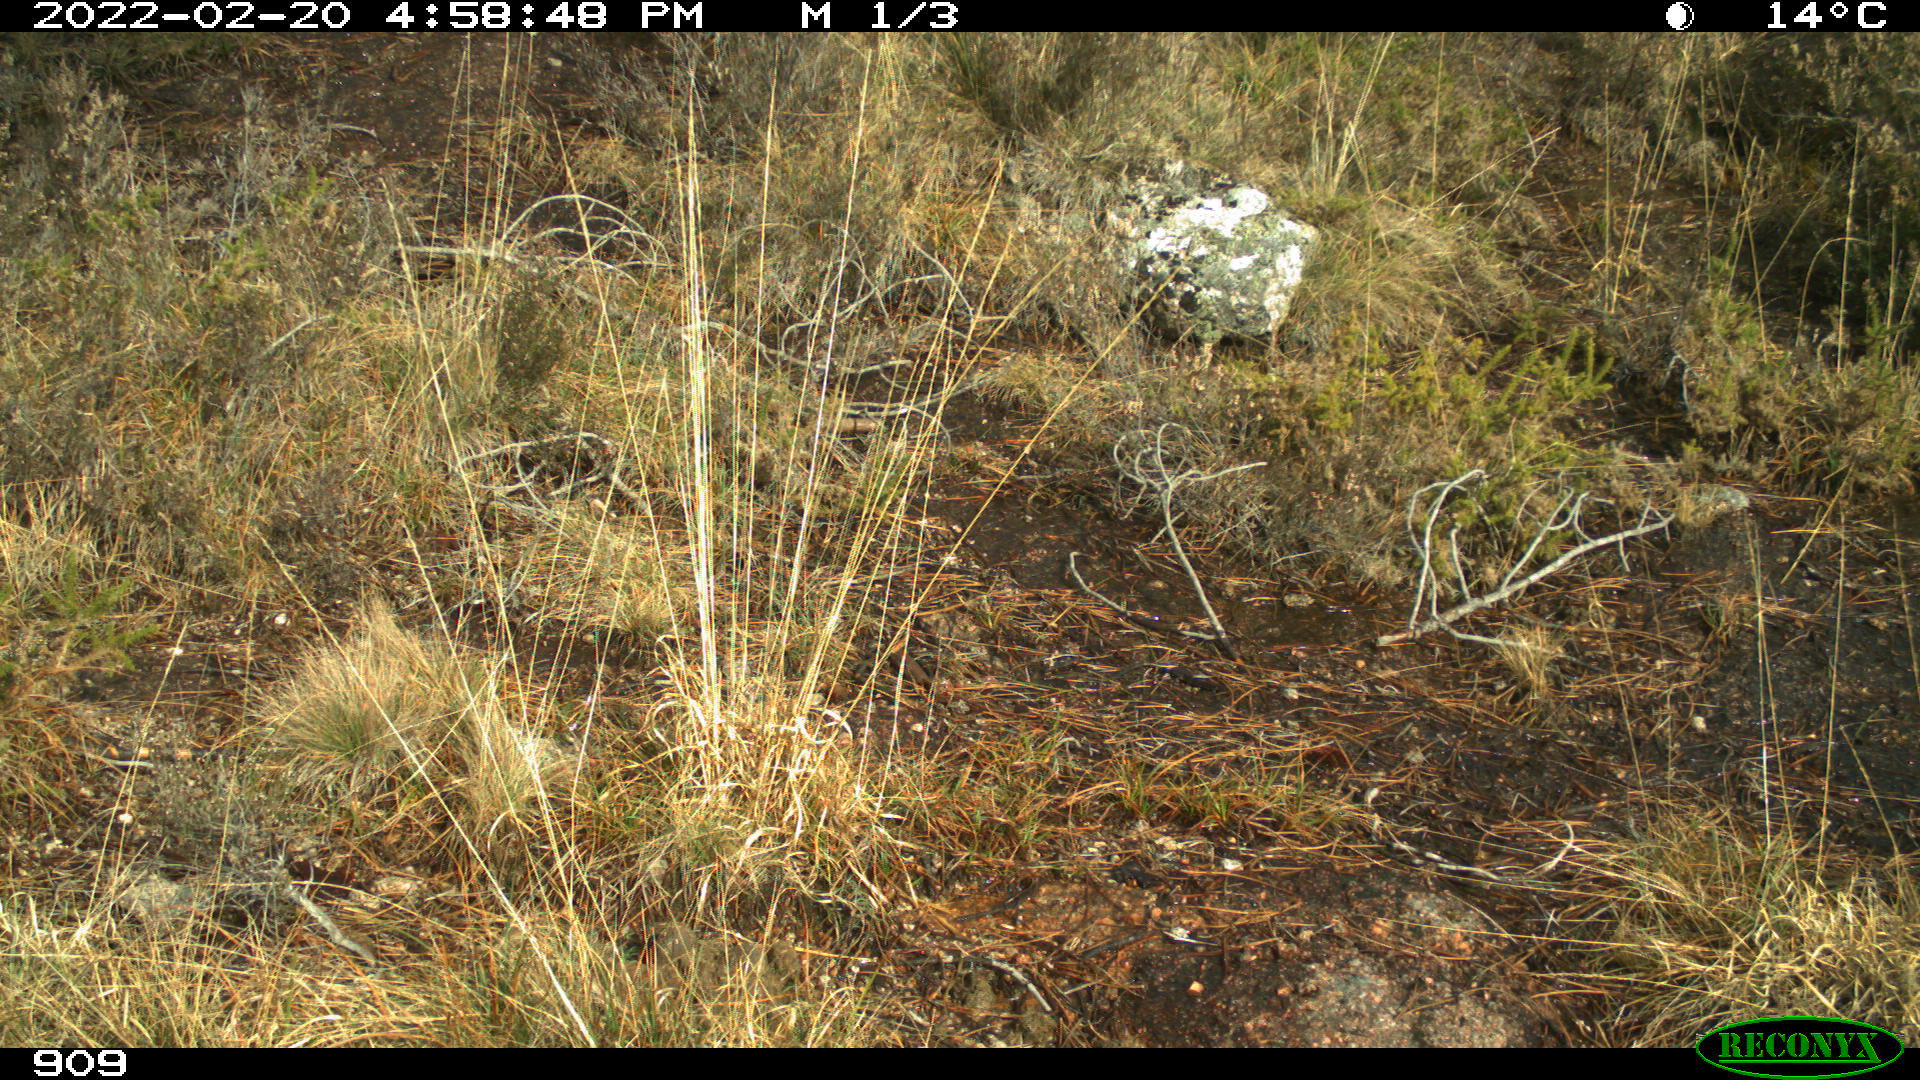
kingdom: Animalia
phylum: Chordata
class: Mammalia
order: Artiodactyla
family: Cervidae
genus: Capreolus
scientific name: Capreolus capreolus
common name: Western roe deer
